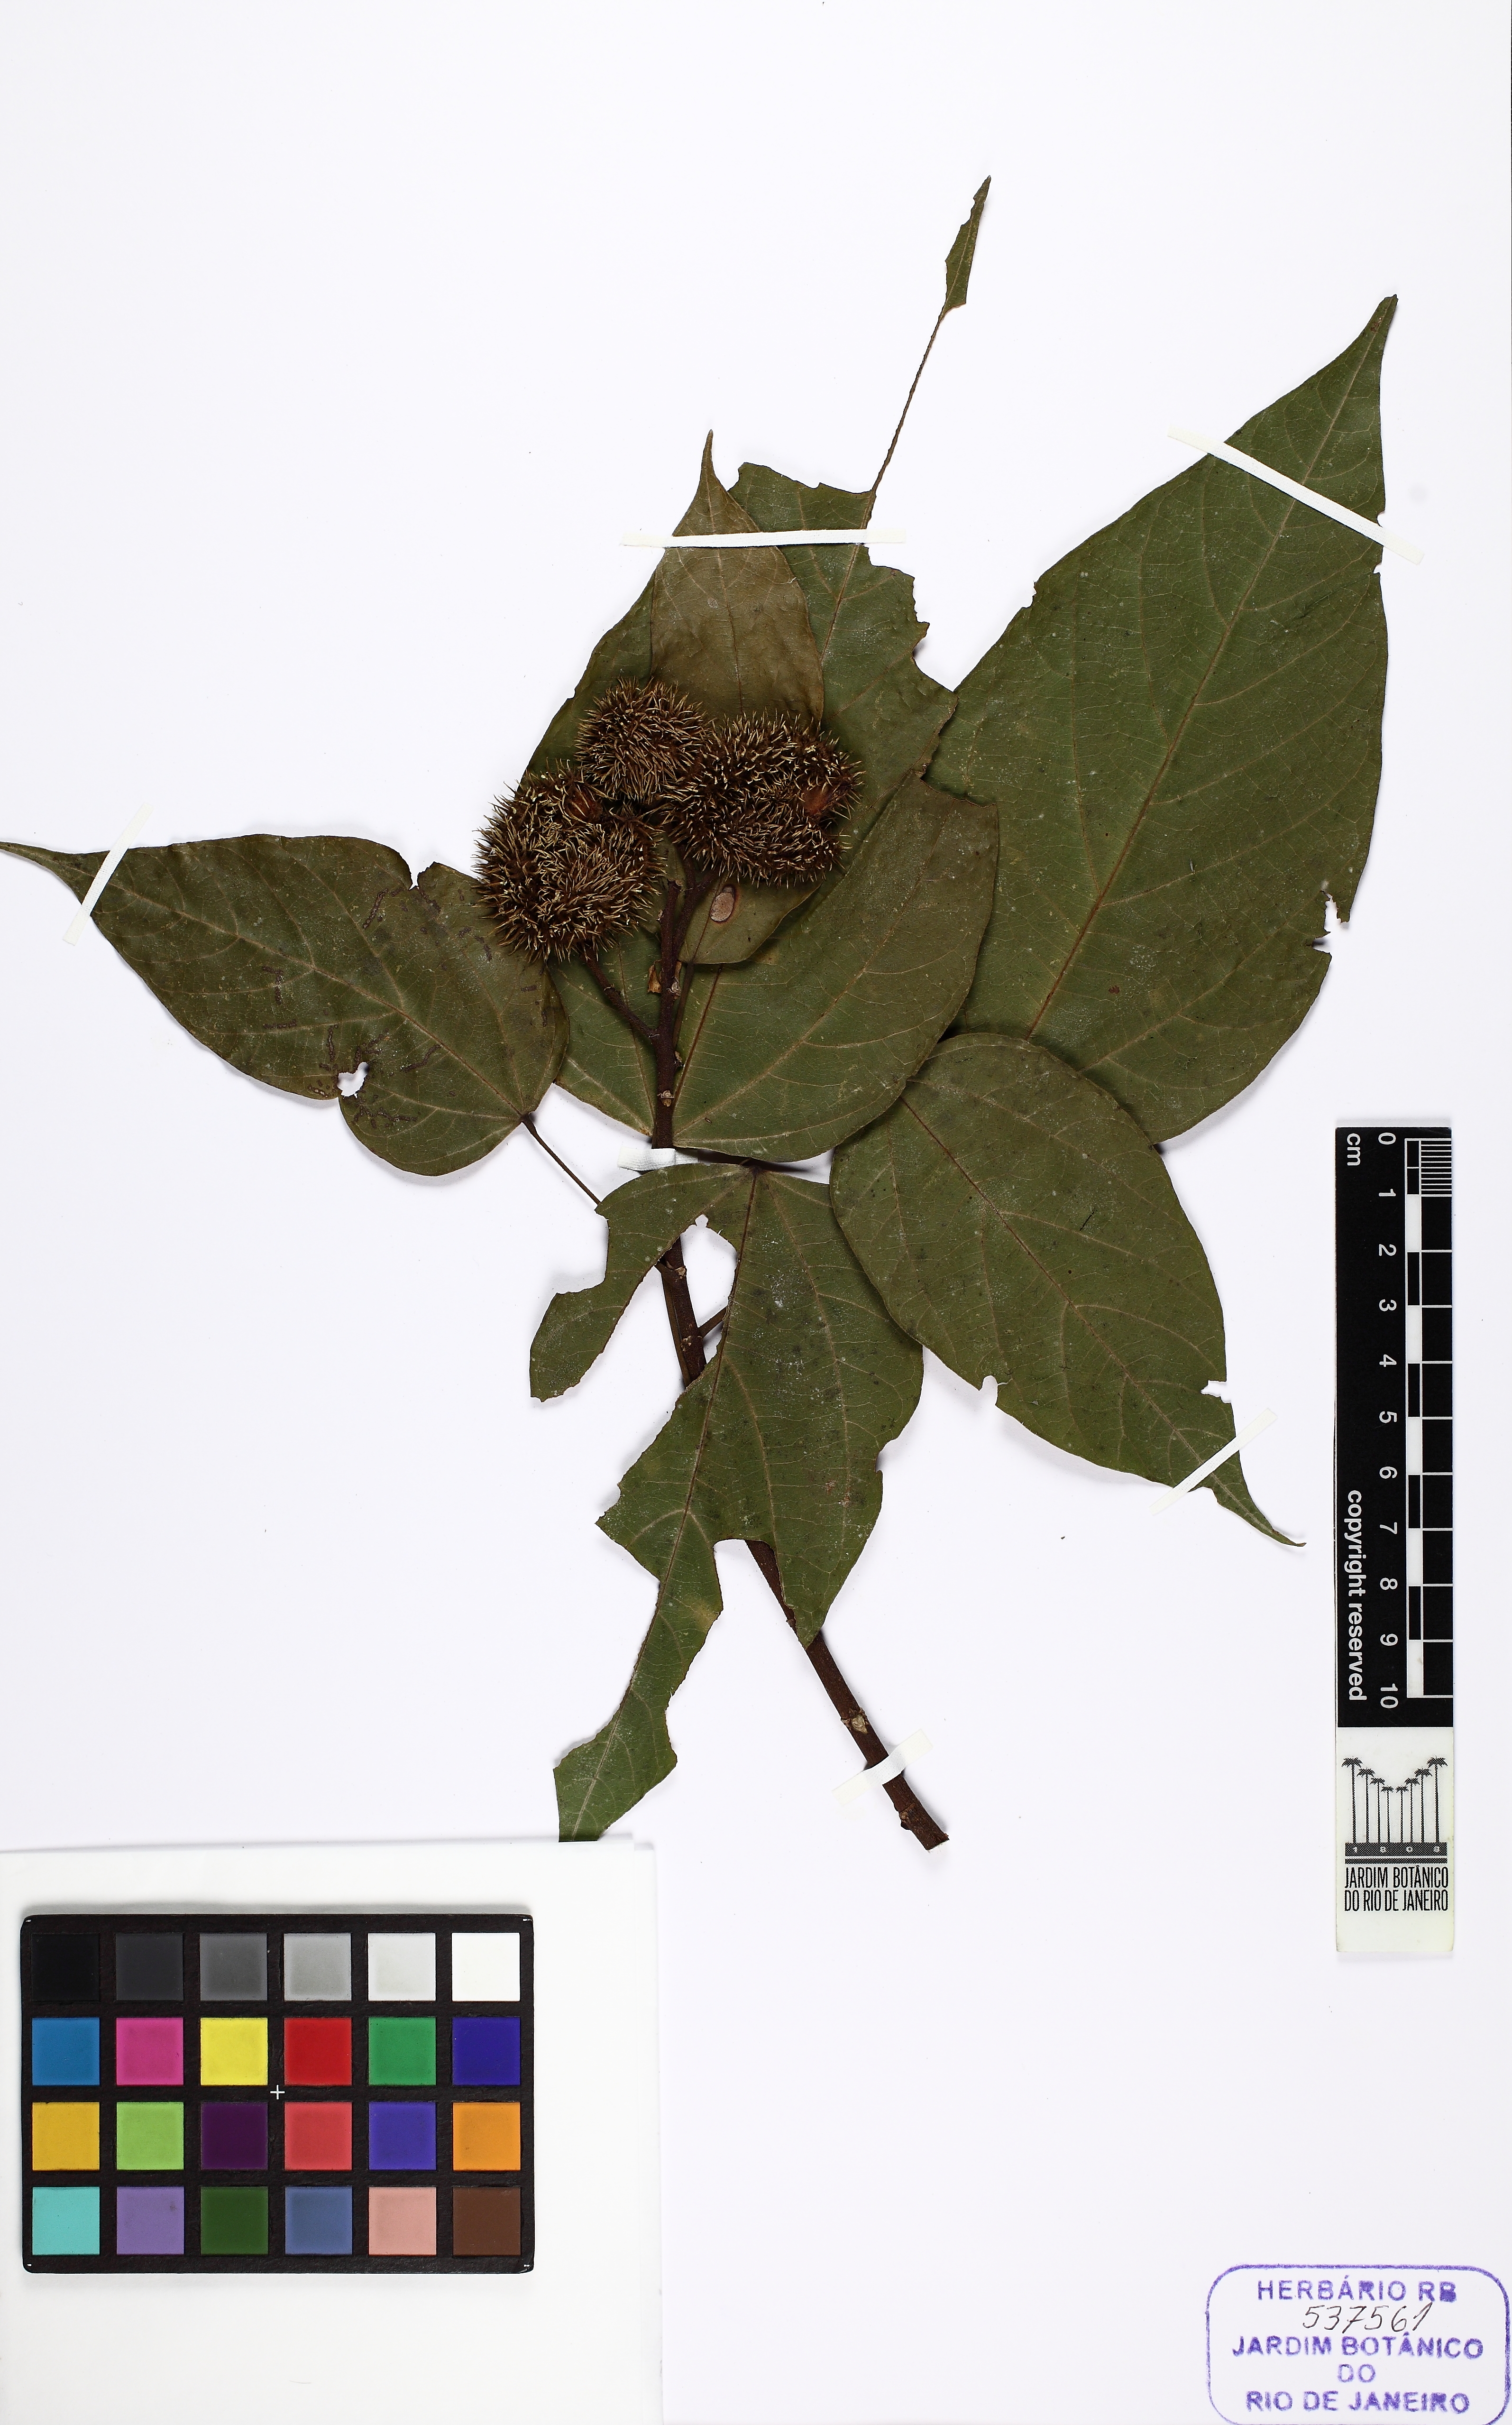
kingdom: Plantae
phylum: Tracheophyta
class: Magnoliopsida
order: Malvales
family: Bixaceae
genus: Bixa
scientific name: Bixa
